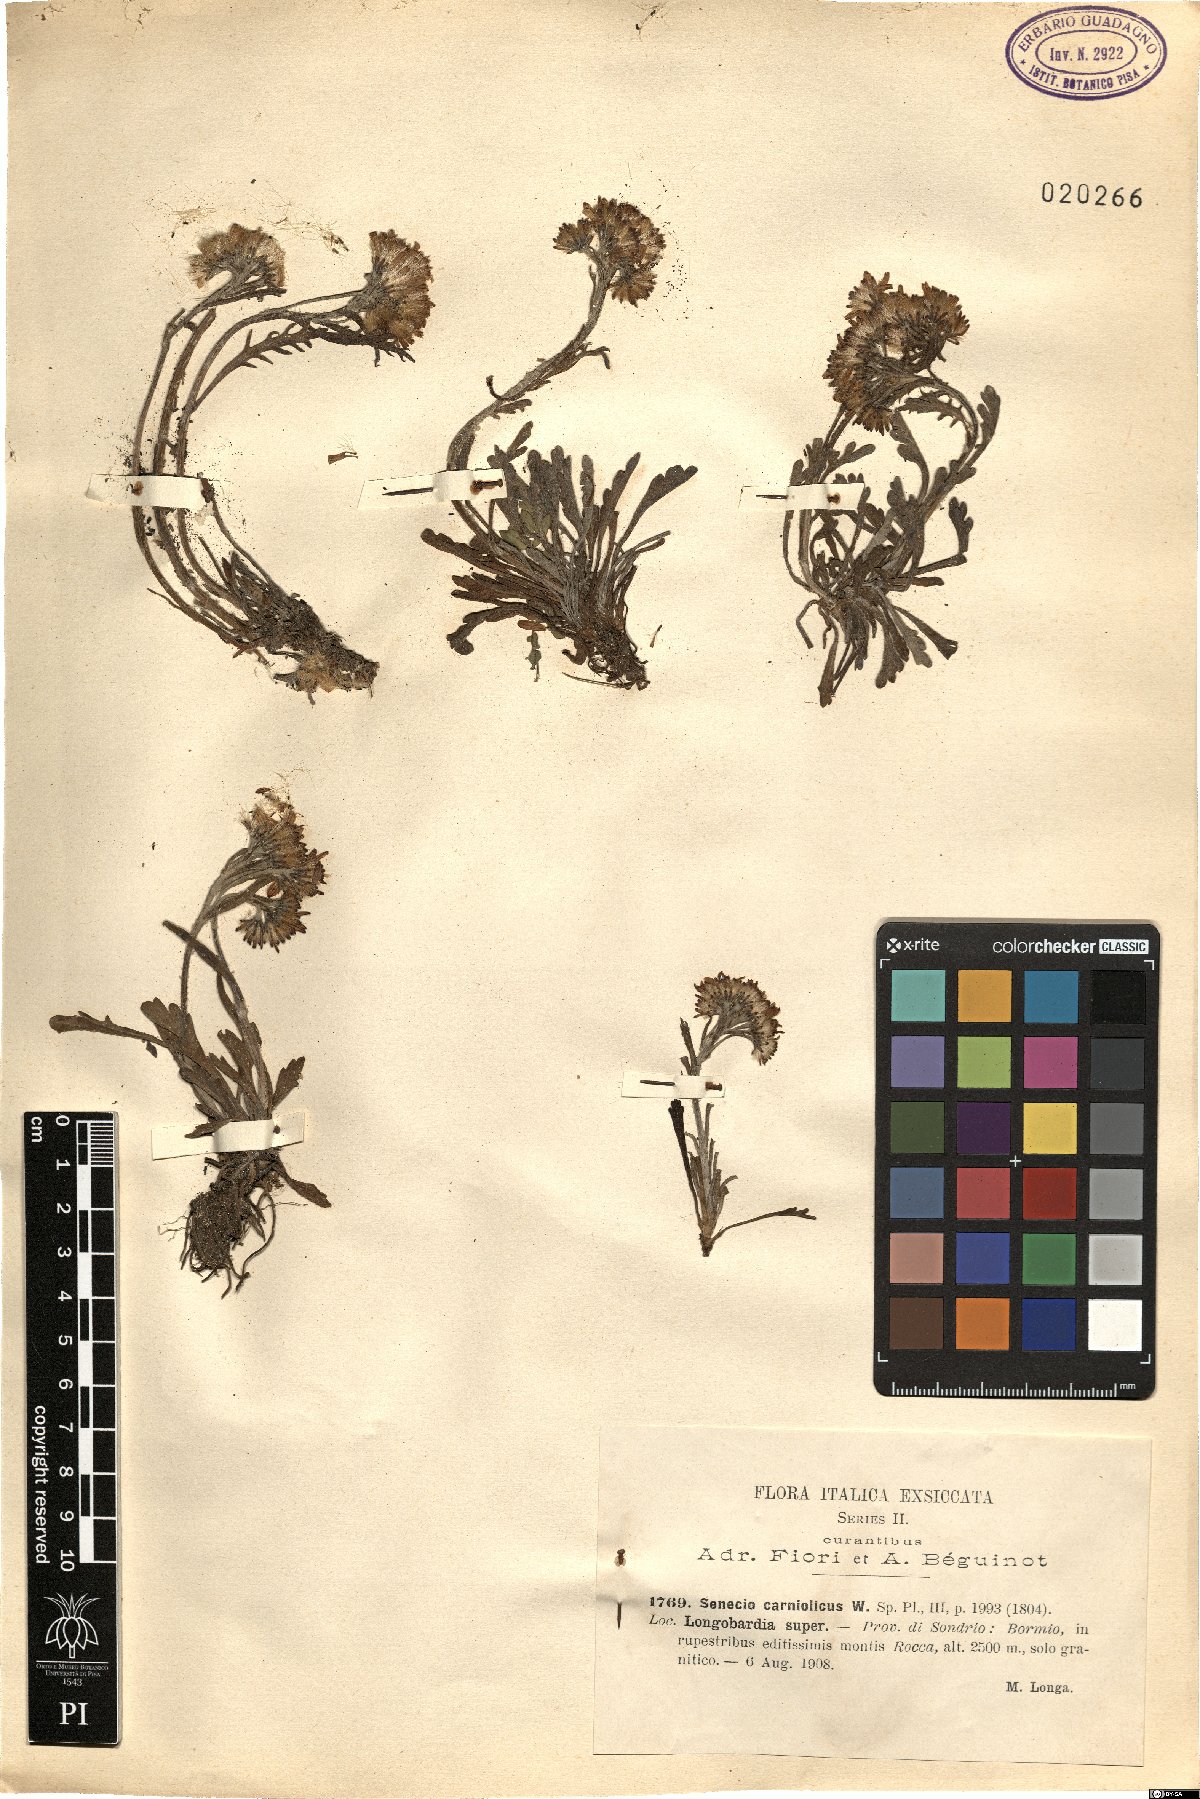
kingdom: Plantae
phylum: Tracheophyta
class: Magnoliopsida
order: Asterales
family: Asteraceae
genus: Jacobaea
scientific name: Jacobaea carniolica
